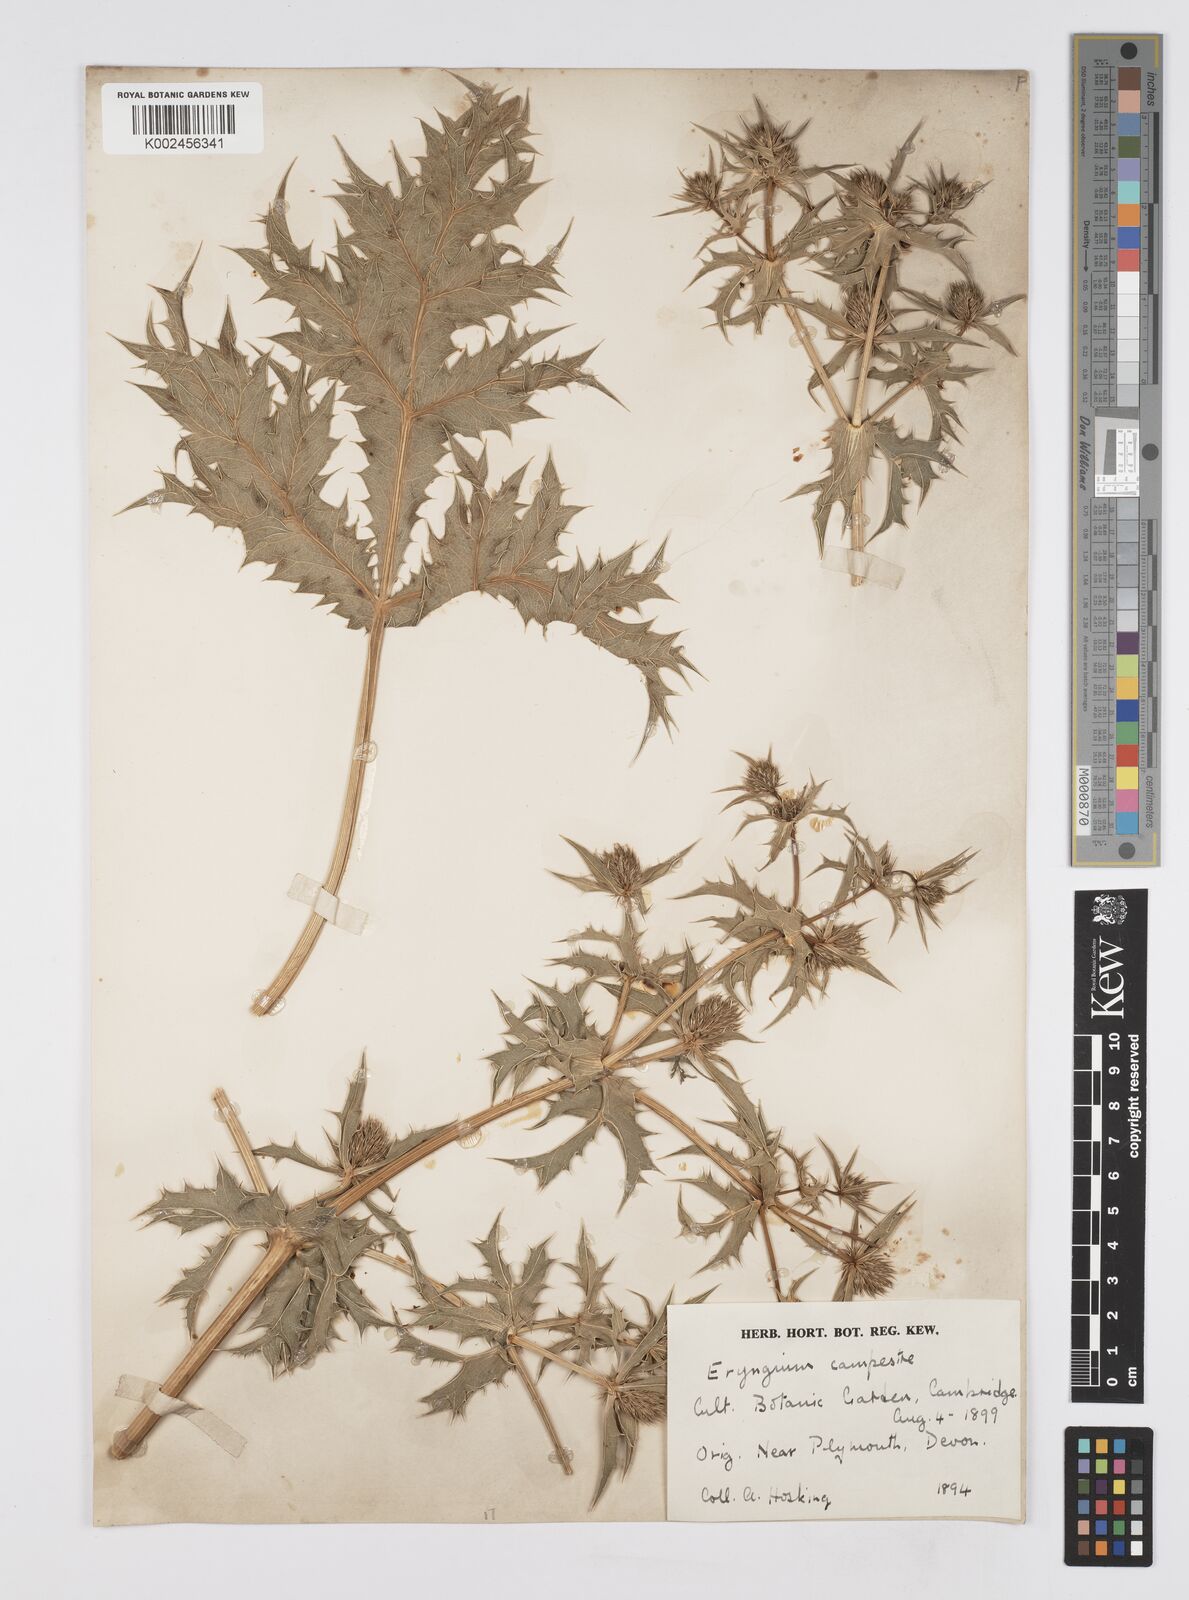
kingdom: Plantae
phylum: Tracheophyta
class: Magnoliopsida
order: Apiales
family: Apiaceae
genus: Eryngium
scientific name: Eryngium campestre
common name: Field eryngo
